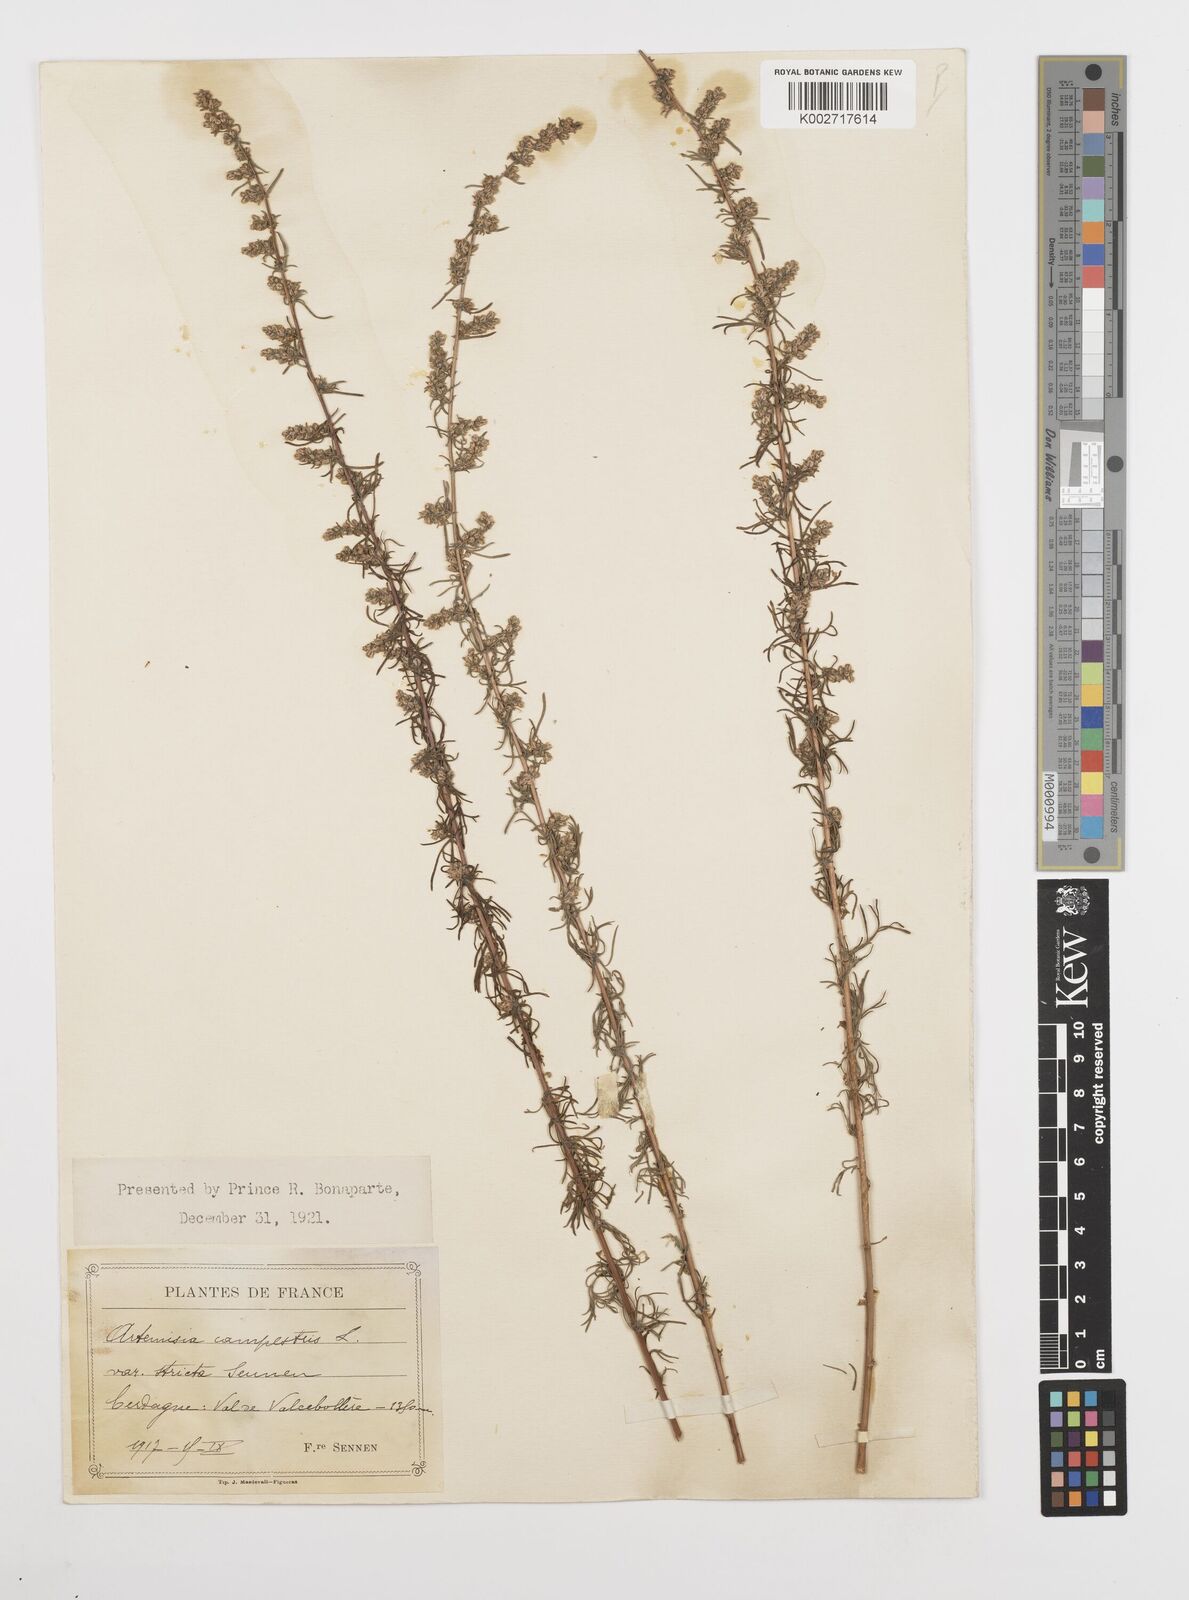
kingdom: Plantae
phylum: Tracheophyta
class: Magnoliopsida
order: Asterales
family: Asteraceae
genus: Artemisia
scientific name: Artemisia campestris
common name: Field wormwood
